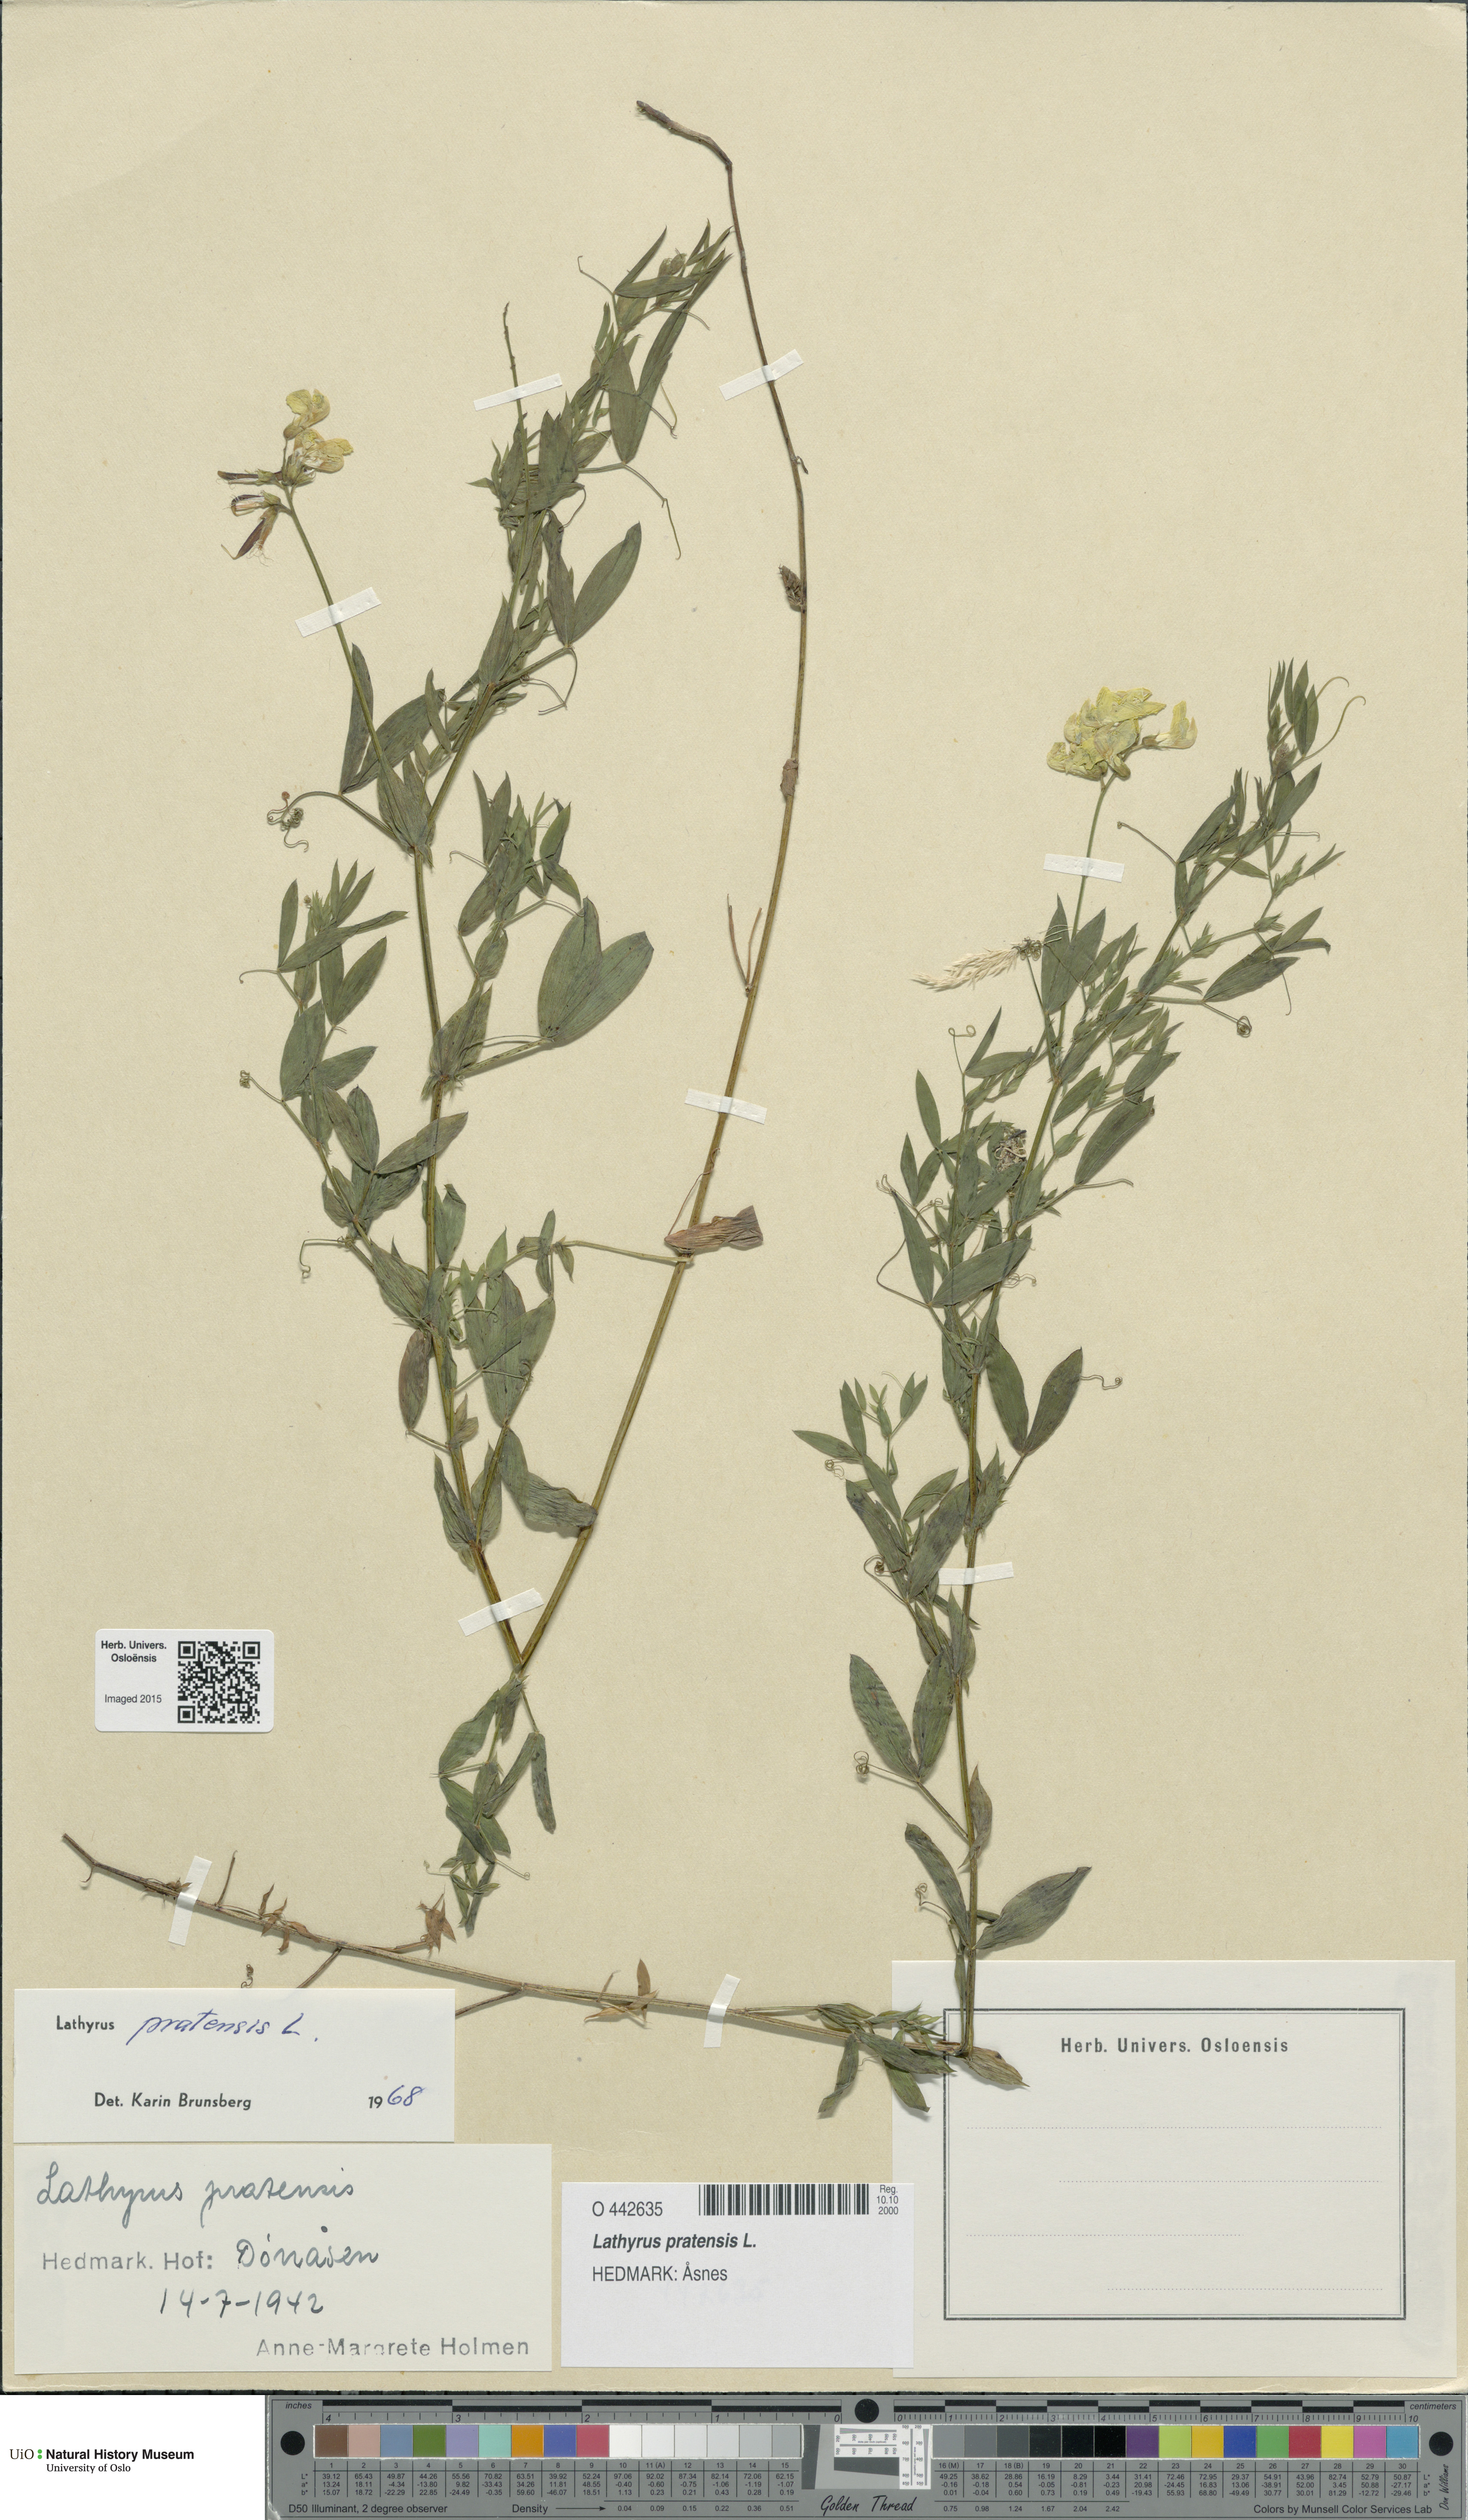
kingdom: Plantae
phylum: Tracheophyta
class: Magnoliopsida
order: Fabales
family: Fabaceae
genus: Lathyrus
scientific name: Lathyrus pratensis
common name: Meadow vetchling
